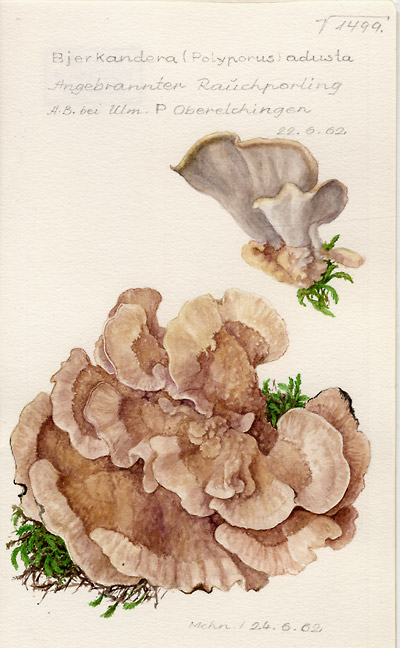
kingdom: Fungi
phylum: Basidiomycota
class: Agaricomycetes
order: Polyporales
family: Phanerochaetaceae
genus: Bjerkandera
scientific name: Bjerkandera adusta
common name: Smoky bracket
